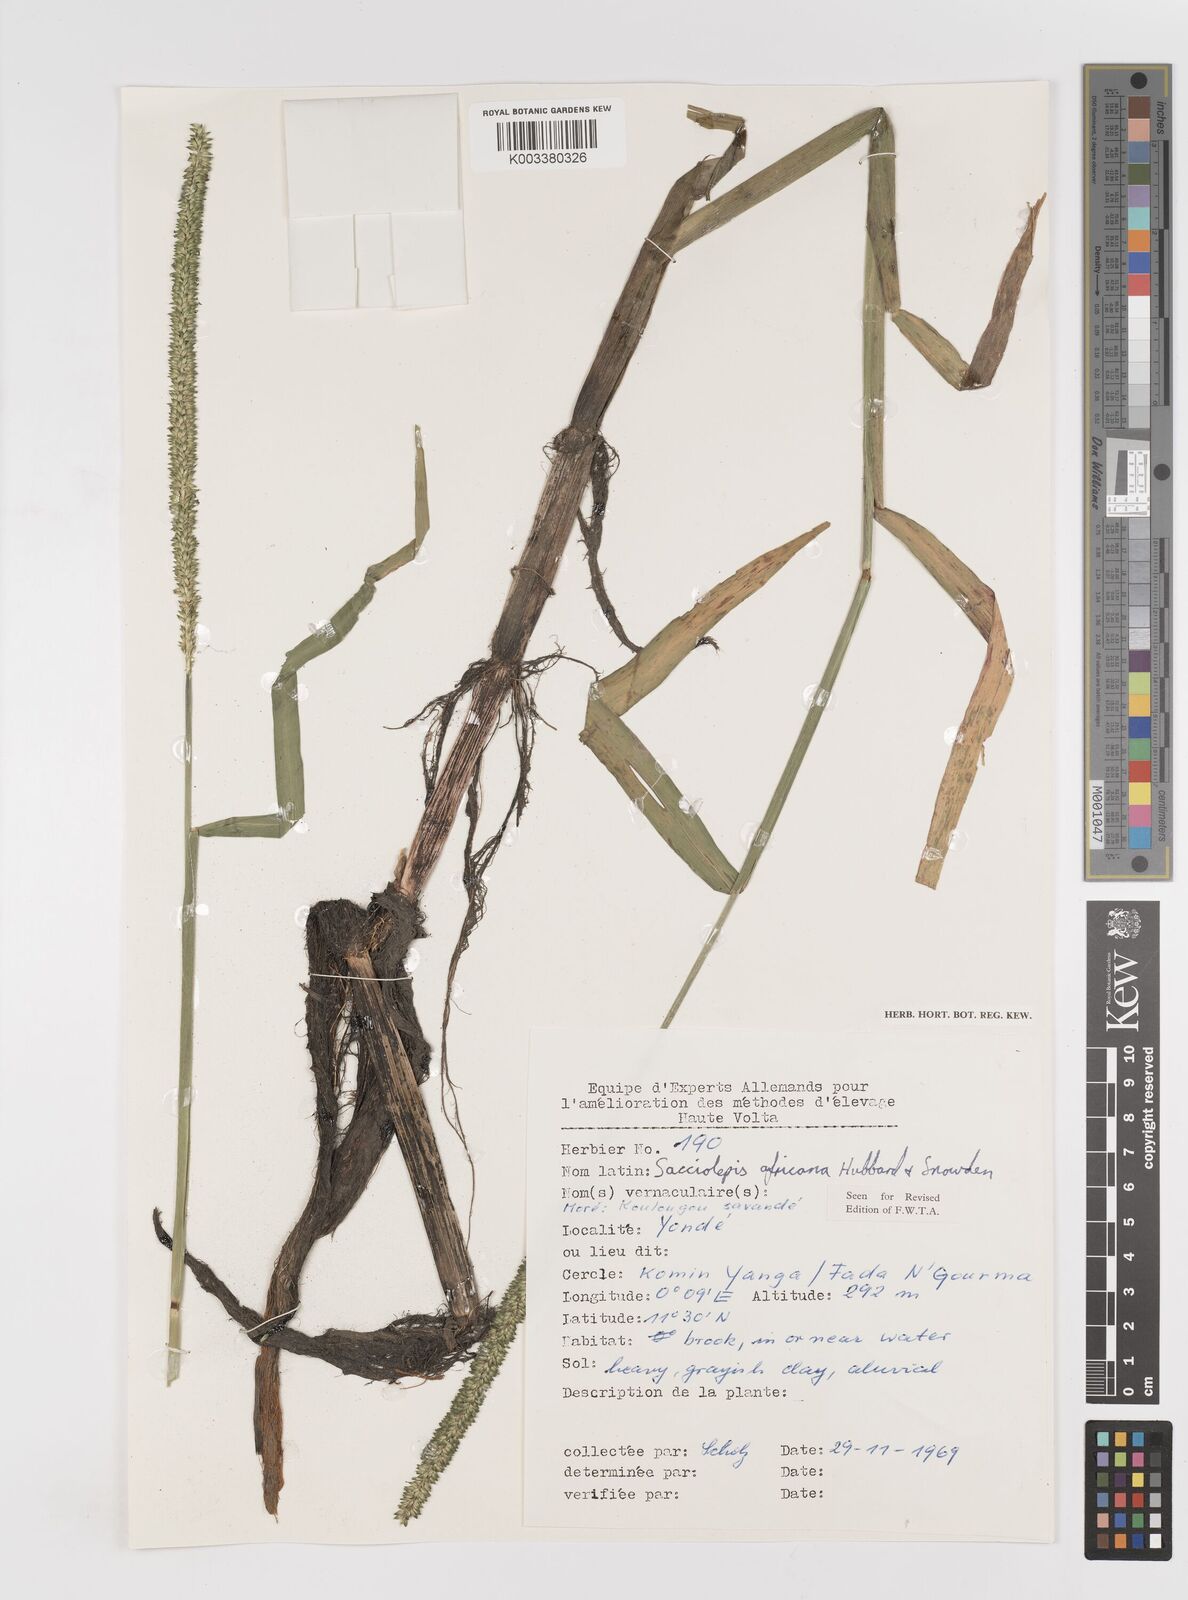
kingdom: Plantae
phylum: Tracheophyta
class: Liliopsida
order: Poales
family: Poaceae
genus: Sacciolepis
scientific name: Sacciolepis africana
